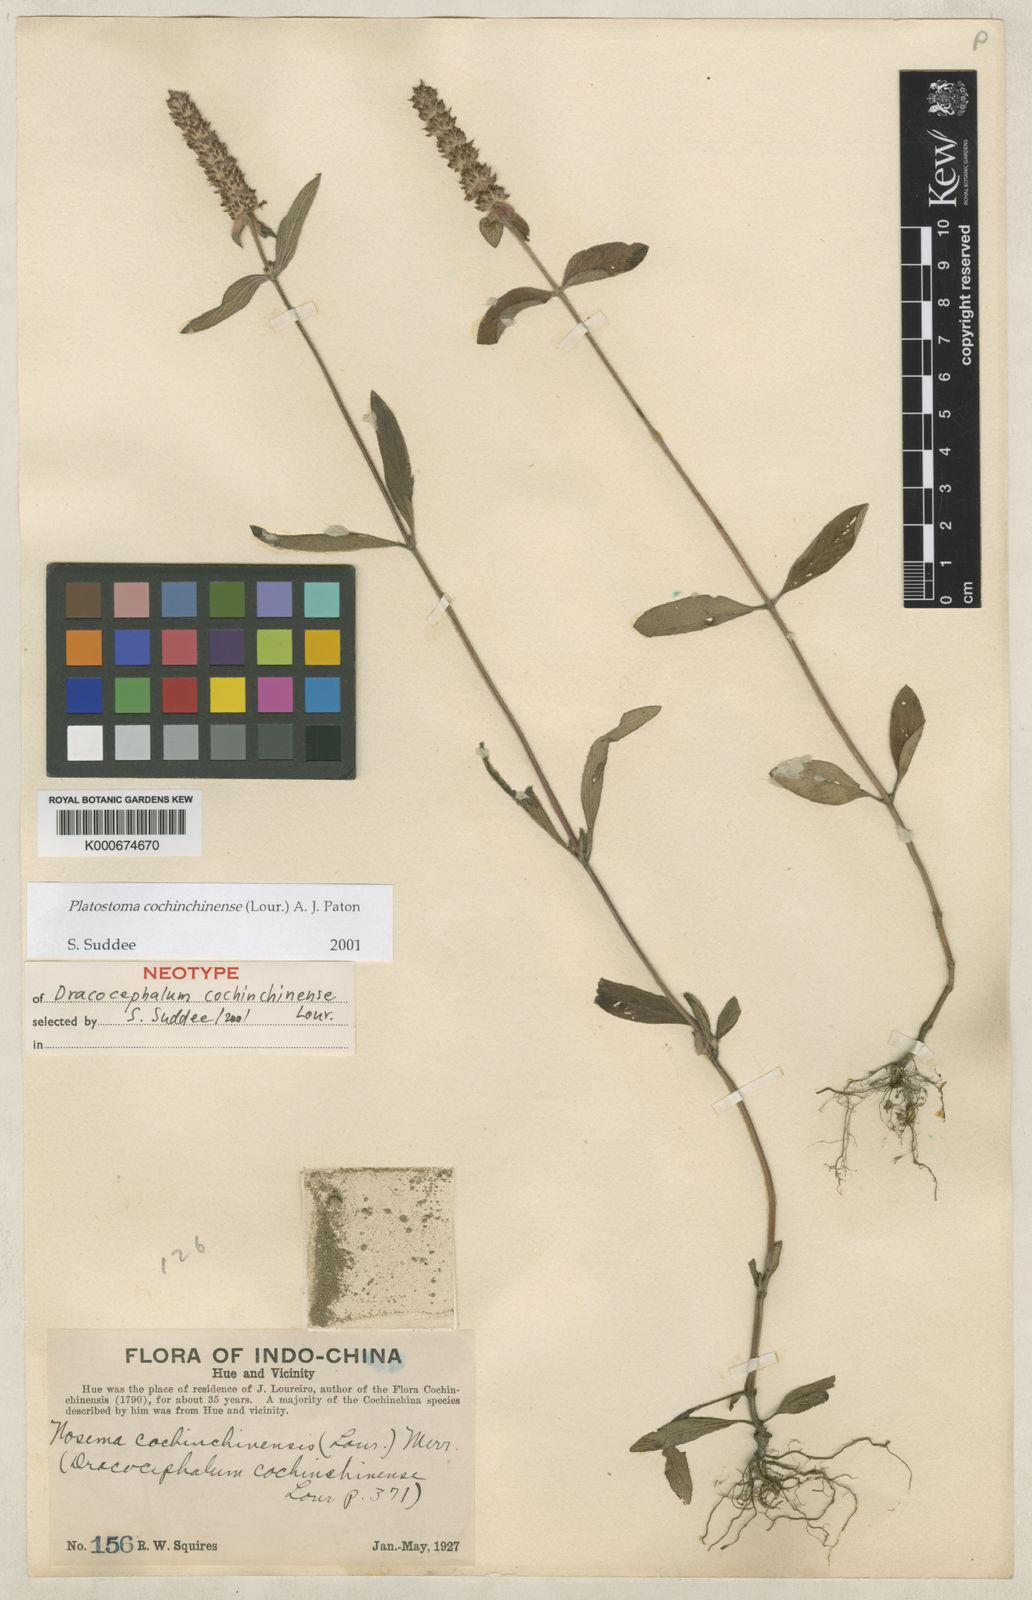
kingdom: Plantae
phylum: Tracheophyta
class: Magnoliopsida
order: Lamiales
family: Lamiaceae
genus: Platostoma
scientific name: Platostoma cochinchinense
